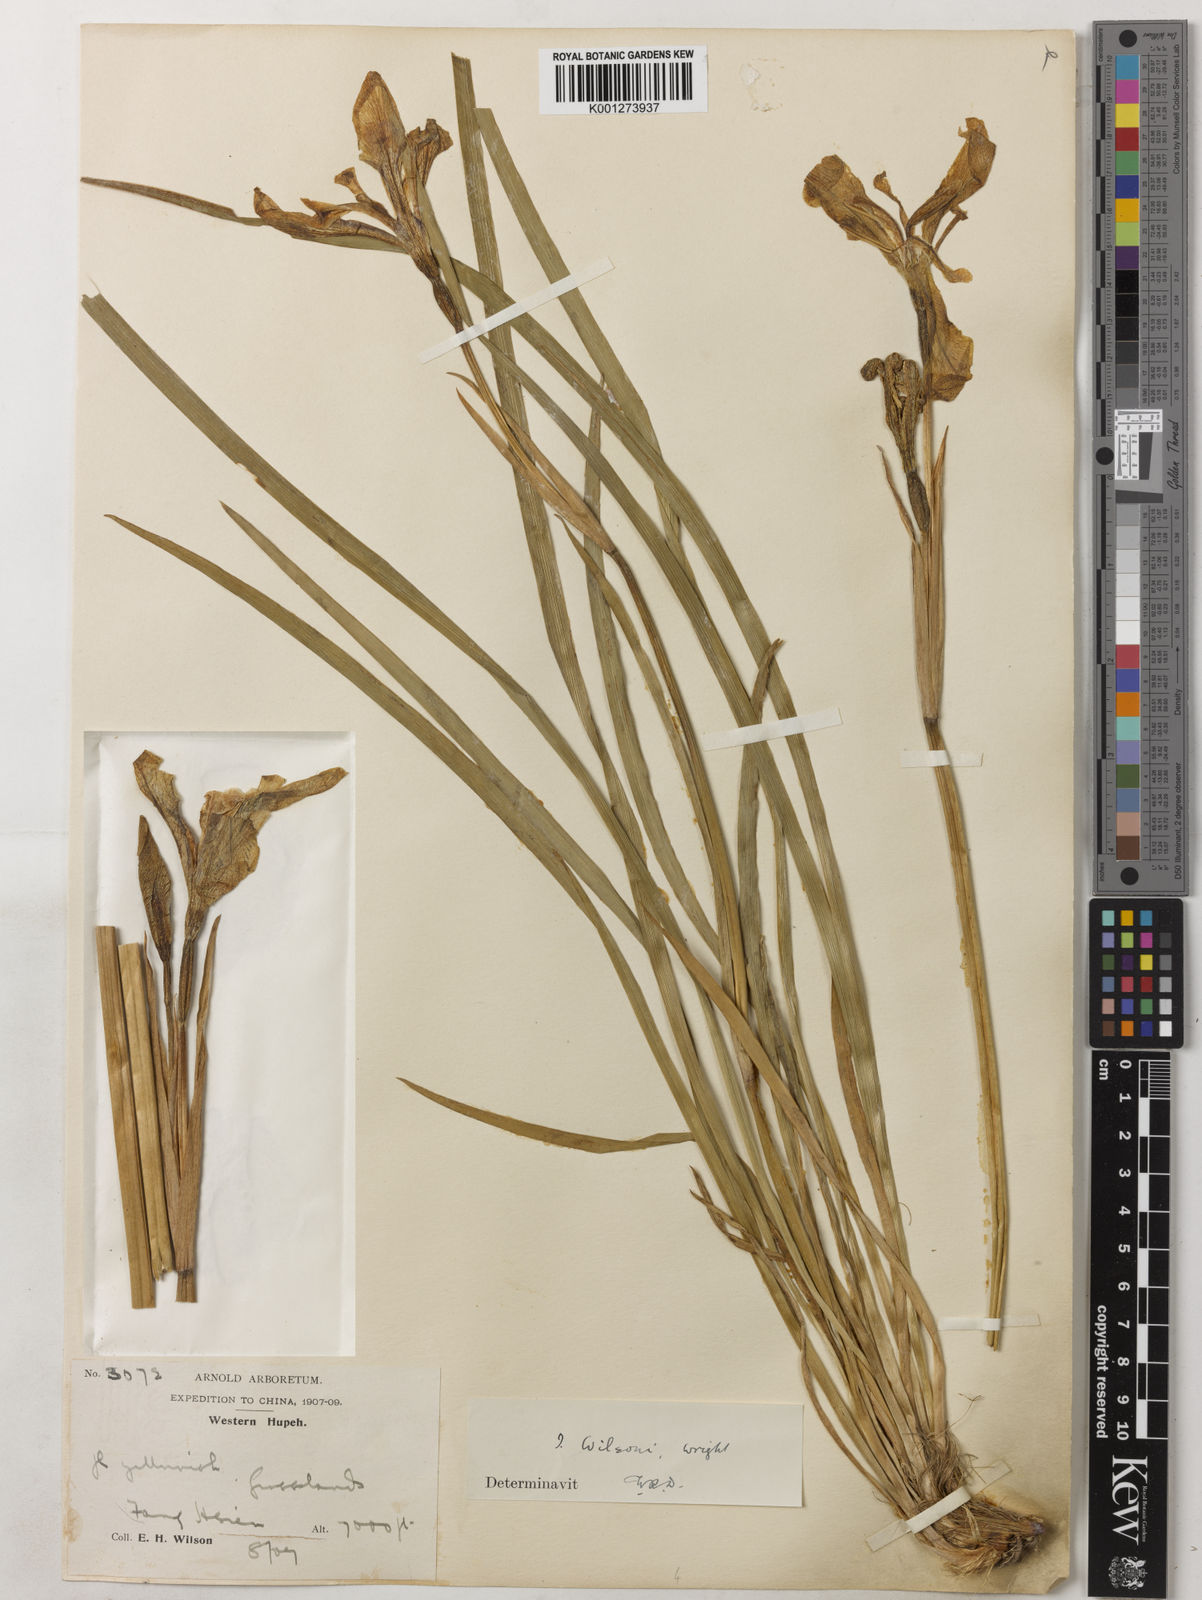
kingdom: Plantae
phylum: Tracheophyta
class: Liliopsida
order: Asparagales
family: Iridaceae
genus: Iris
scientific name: Iris wilsonii
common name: Yellow-flower iris
